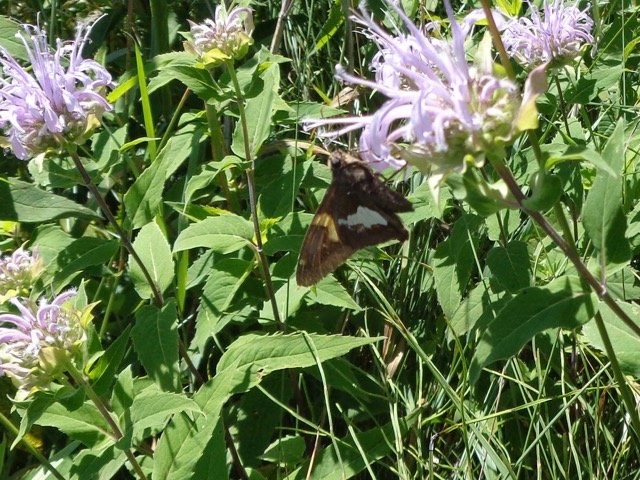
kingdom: Animalia
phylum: Arthropoda
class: Insecta
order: Lepidoptera
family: Hesperiidae
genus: Epargyreus
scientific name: Epargyreus clarus
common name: Silver-spotted Skipper
